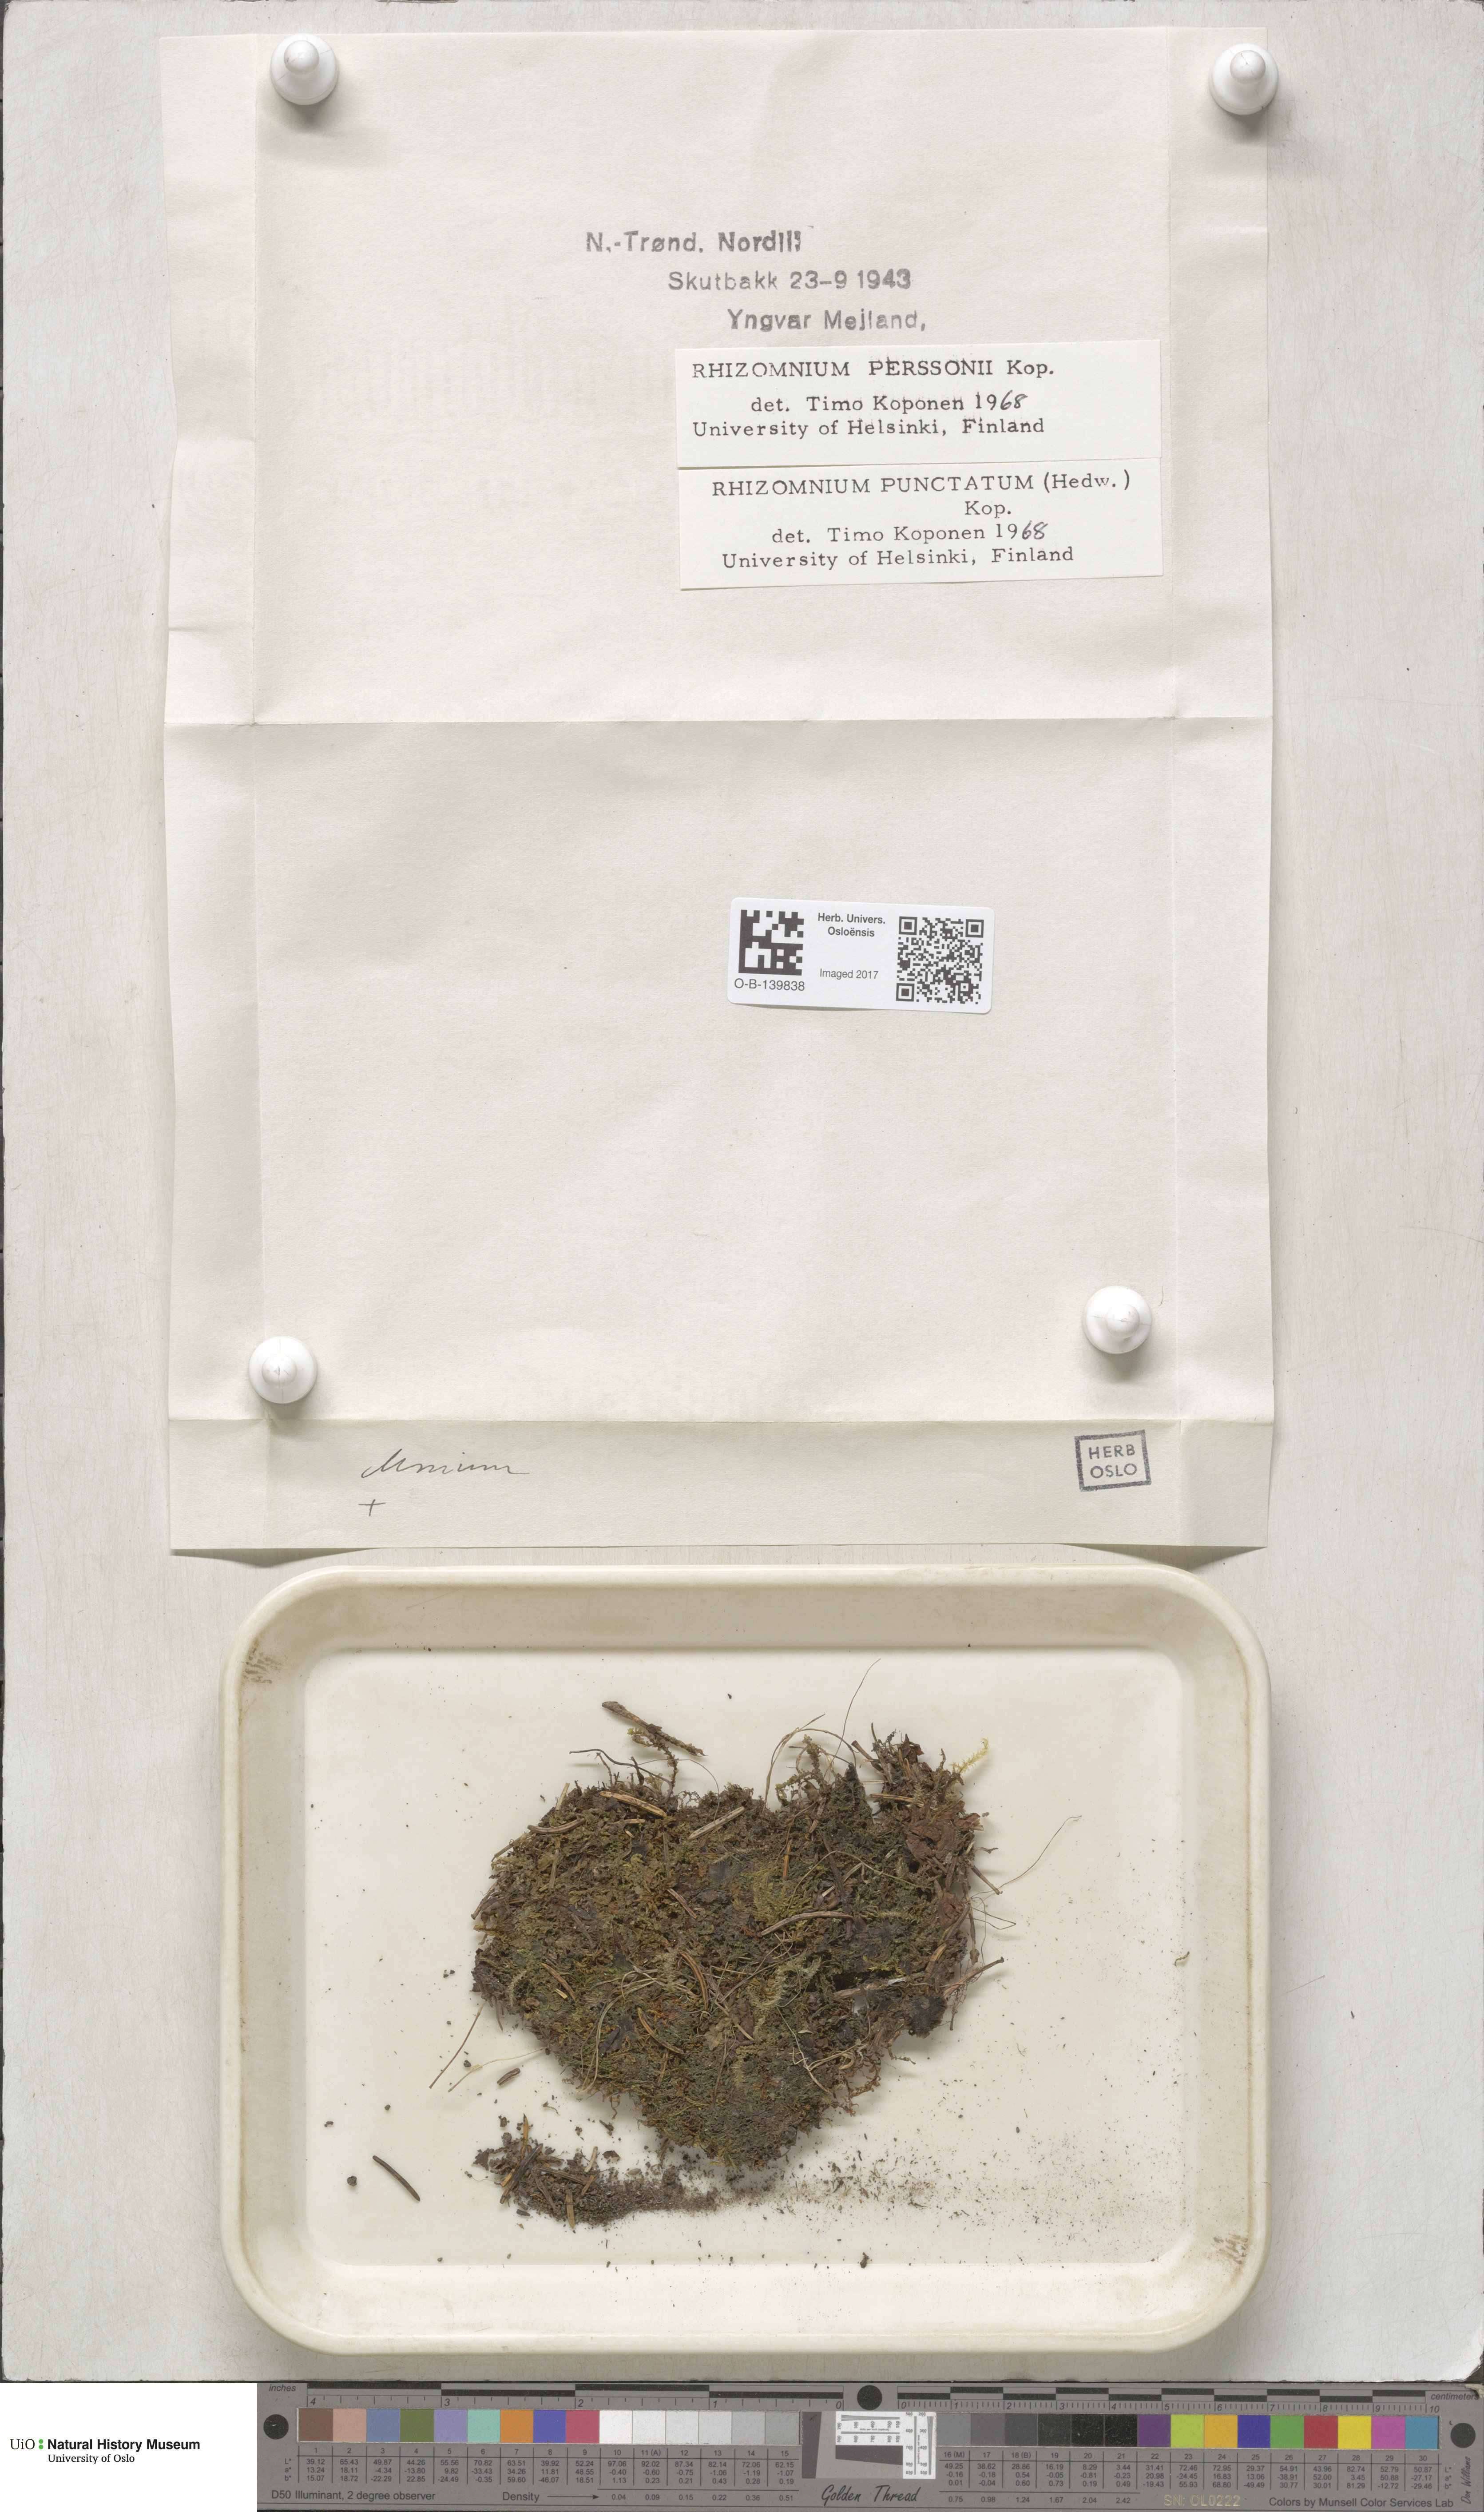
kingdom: Plantae
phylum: Bryophyta
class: Bryopsida
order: Bryales
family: Mniaceae
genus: Rhizomnium
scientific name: Rhizomnium magnifolium
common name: Large-leaved leafy moss
